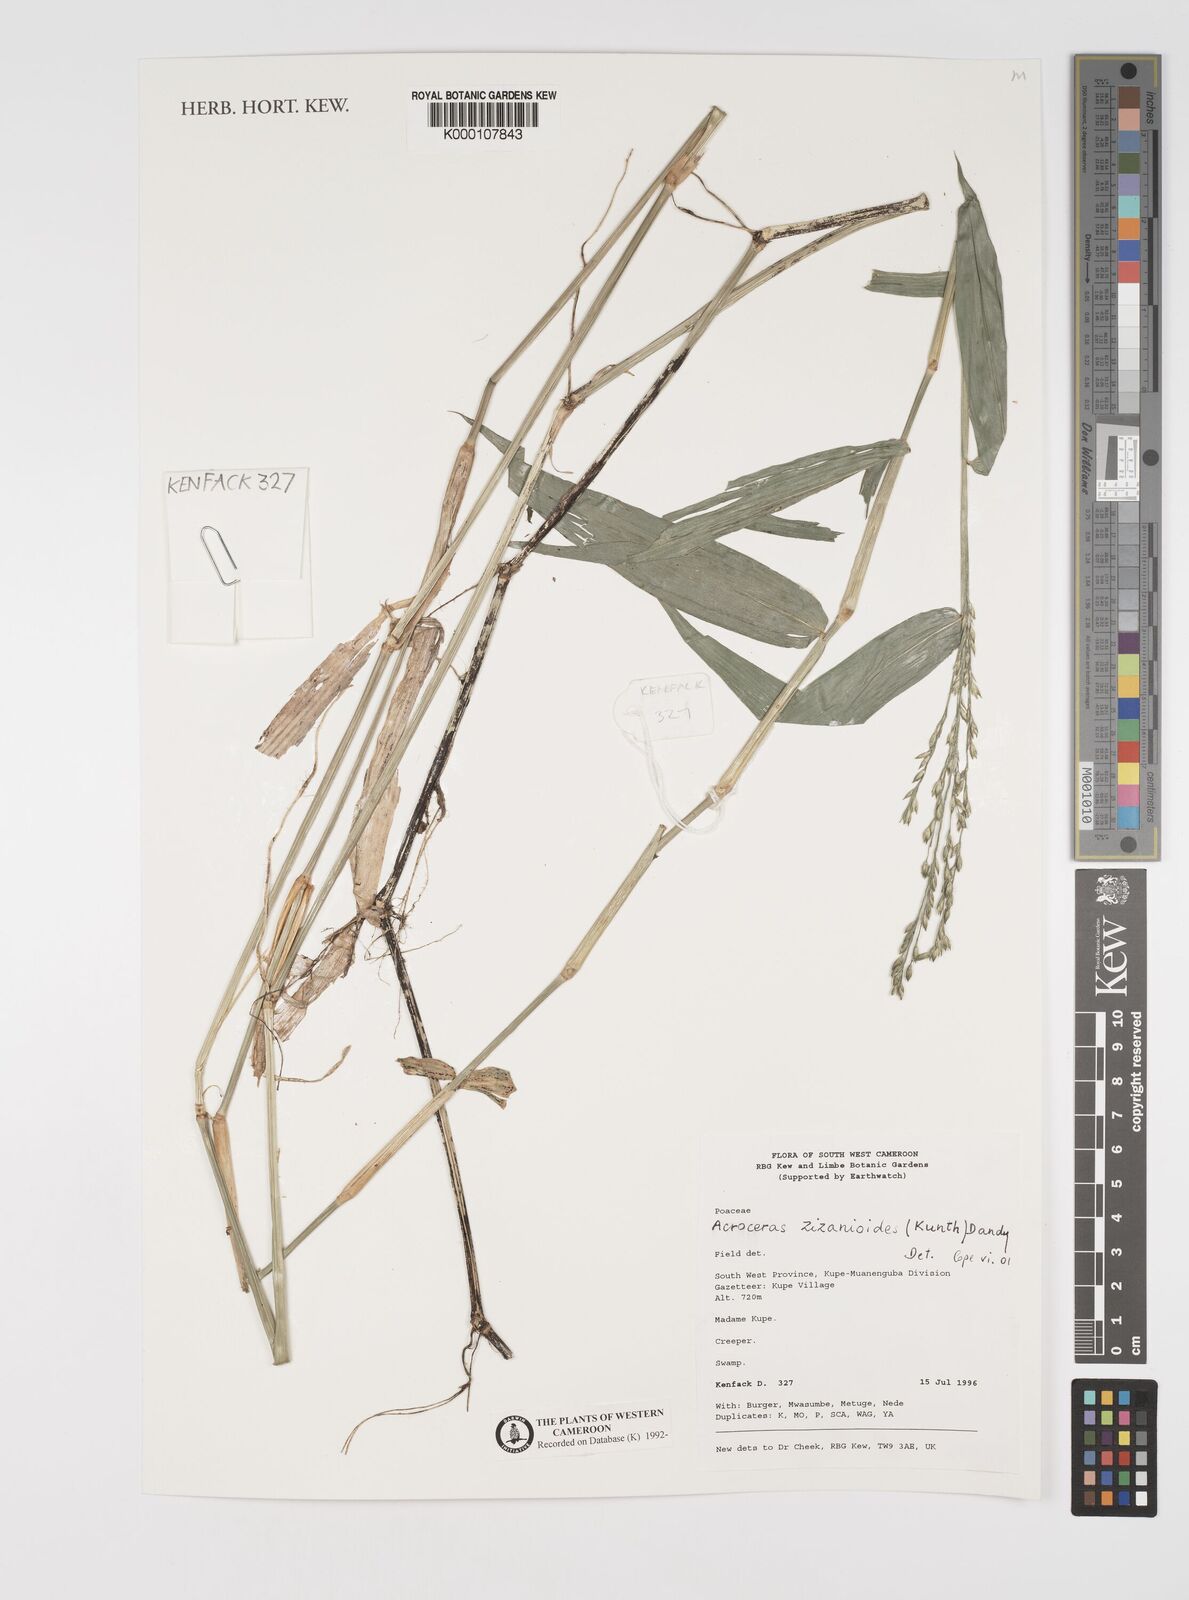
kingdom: Plantae
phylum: Tracheophyta
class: Liliopsida
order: Poales
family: Poaceae
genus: Acroceras
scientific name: Acroceras zizanioides
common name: Oat grass
